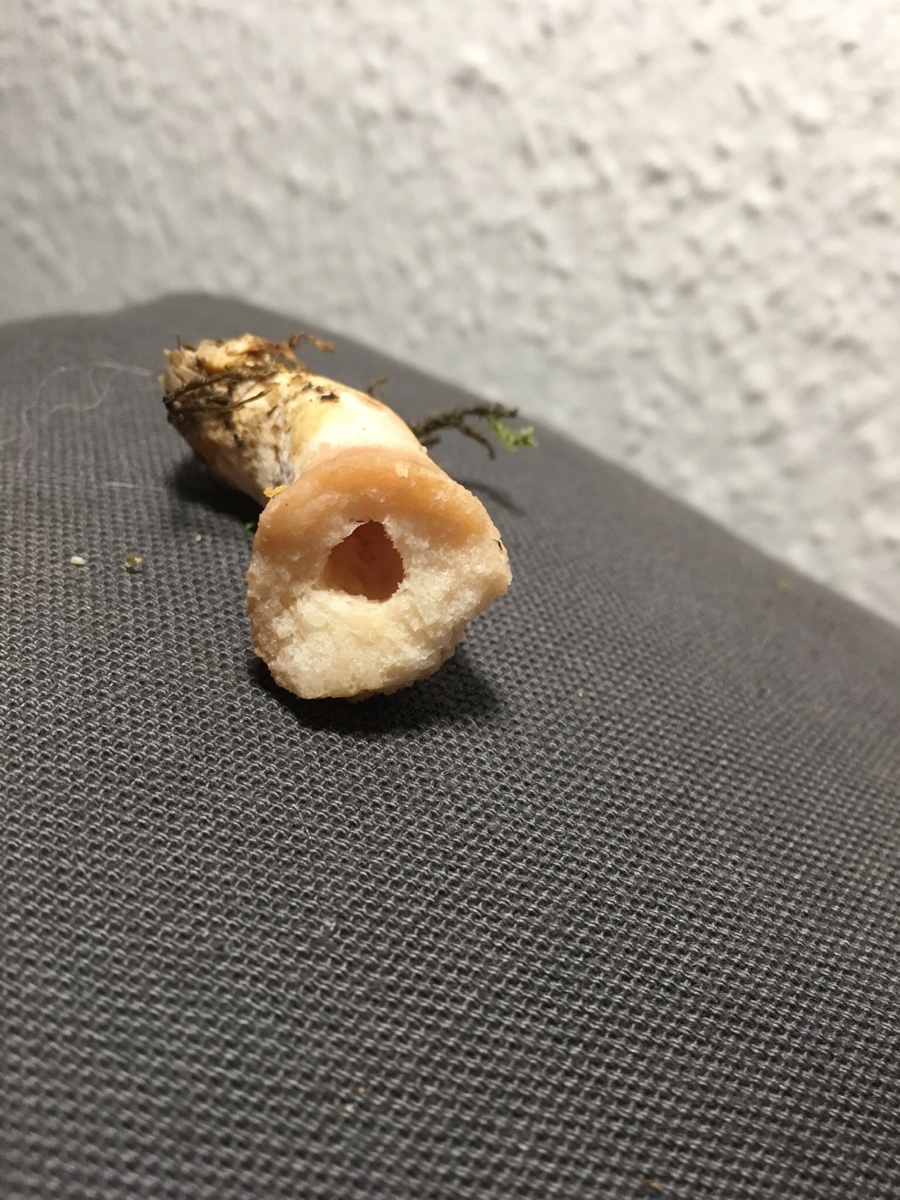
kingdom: Fungi
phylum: Basidiomycota
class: Agaricomycetes
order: Russulales
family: Russulaceae
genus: Lactarius
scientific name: Lactarius pubescens
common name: dunet mælkehat
